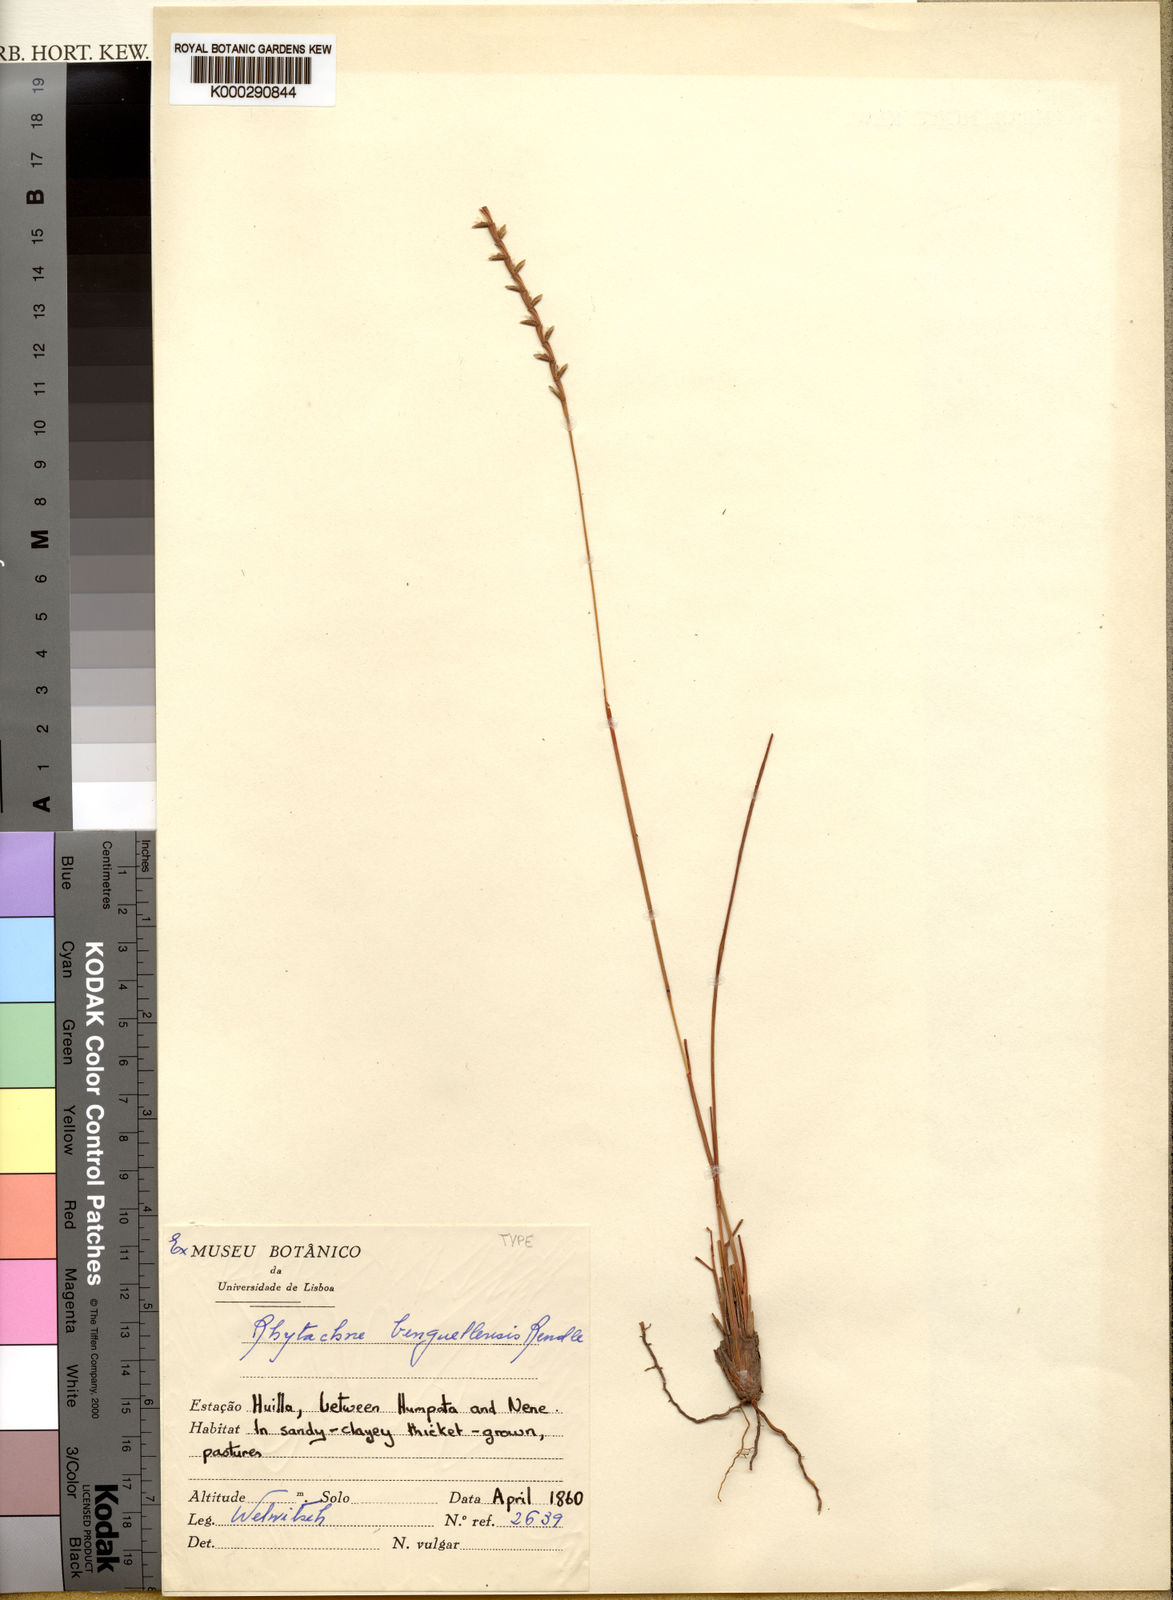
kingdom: Plantae
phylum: Tracheophyta
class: Liliopsida
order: Poales
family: Poaceae
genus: Rhytachne
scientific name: Rhytachne rottboellioides
